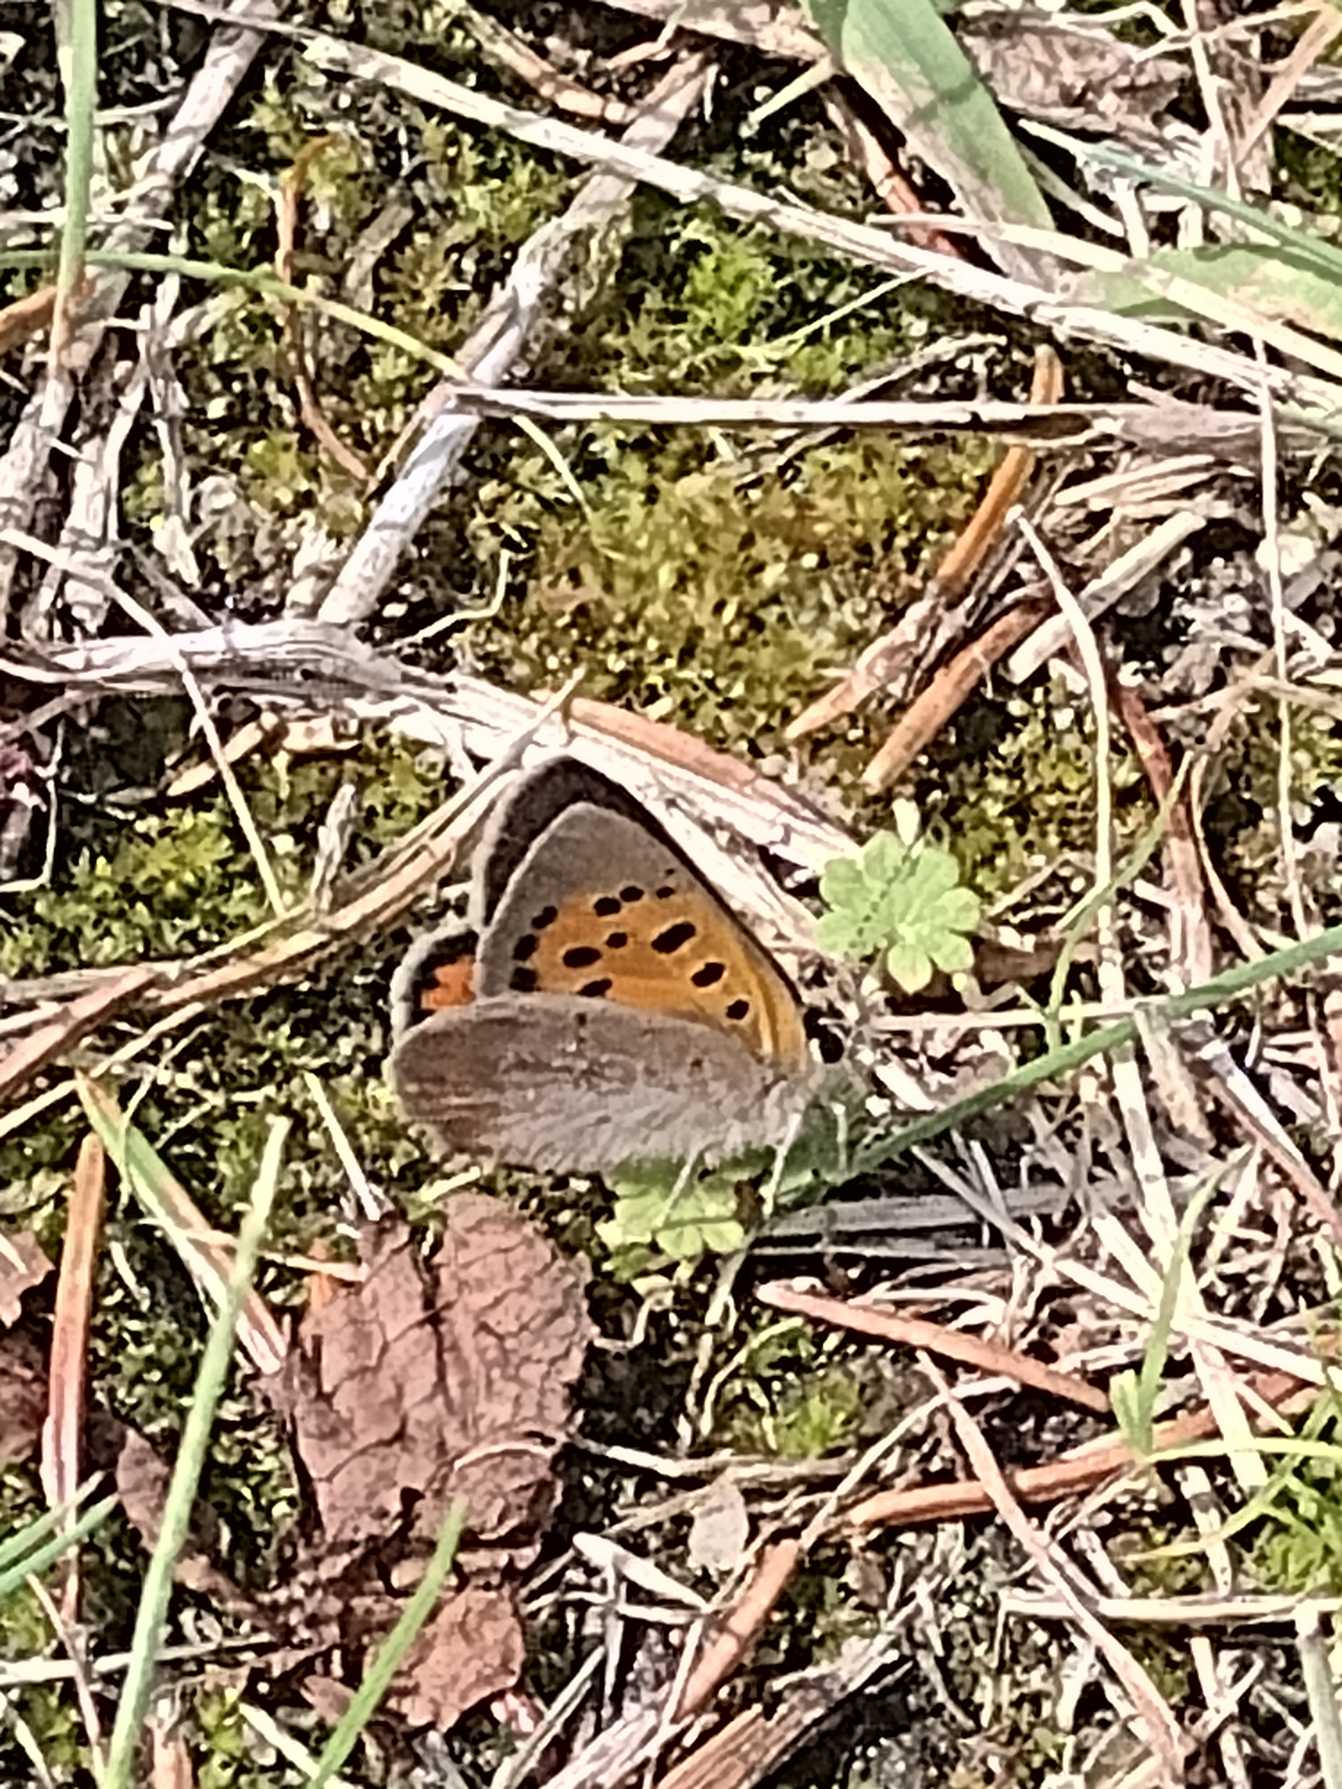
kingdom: Animalia
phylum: Arthropoda
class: Insecta
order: Lepidoptera
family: Lycaenidae
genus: Lycaena
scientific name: Lycaena phlaeas
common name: Lille ildfugl
